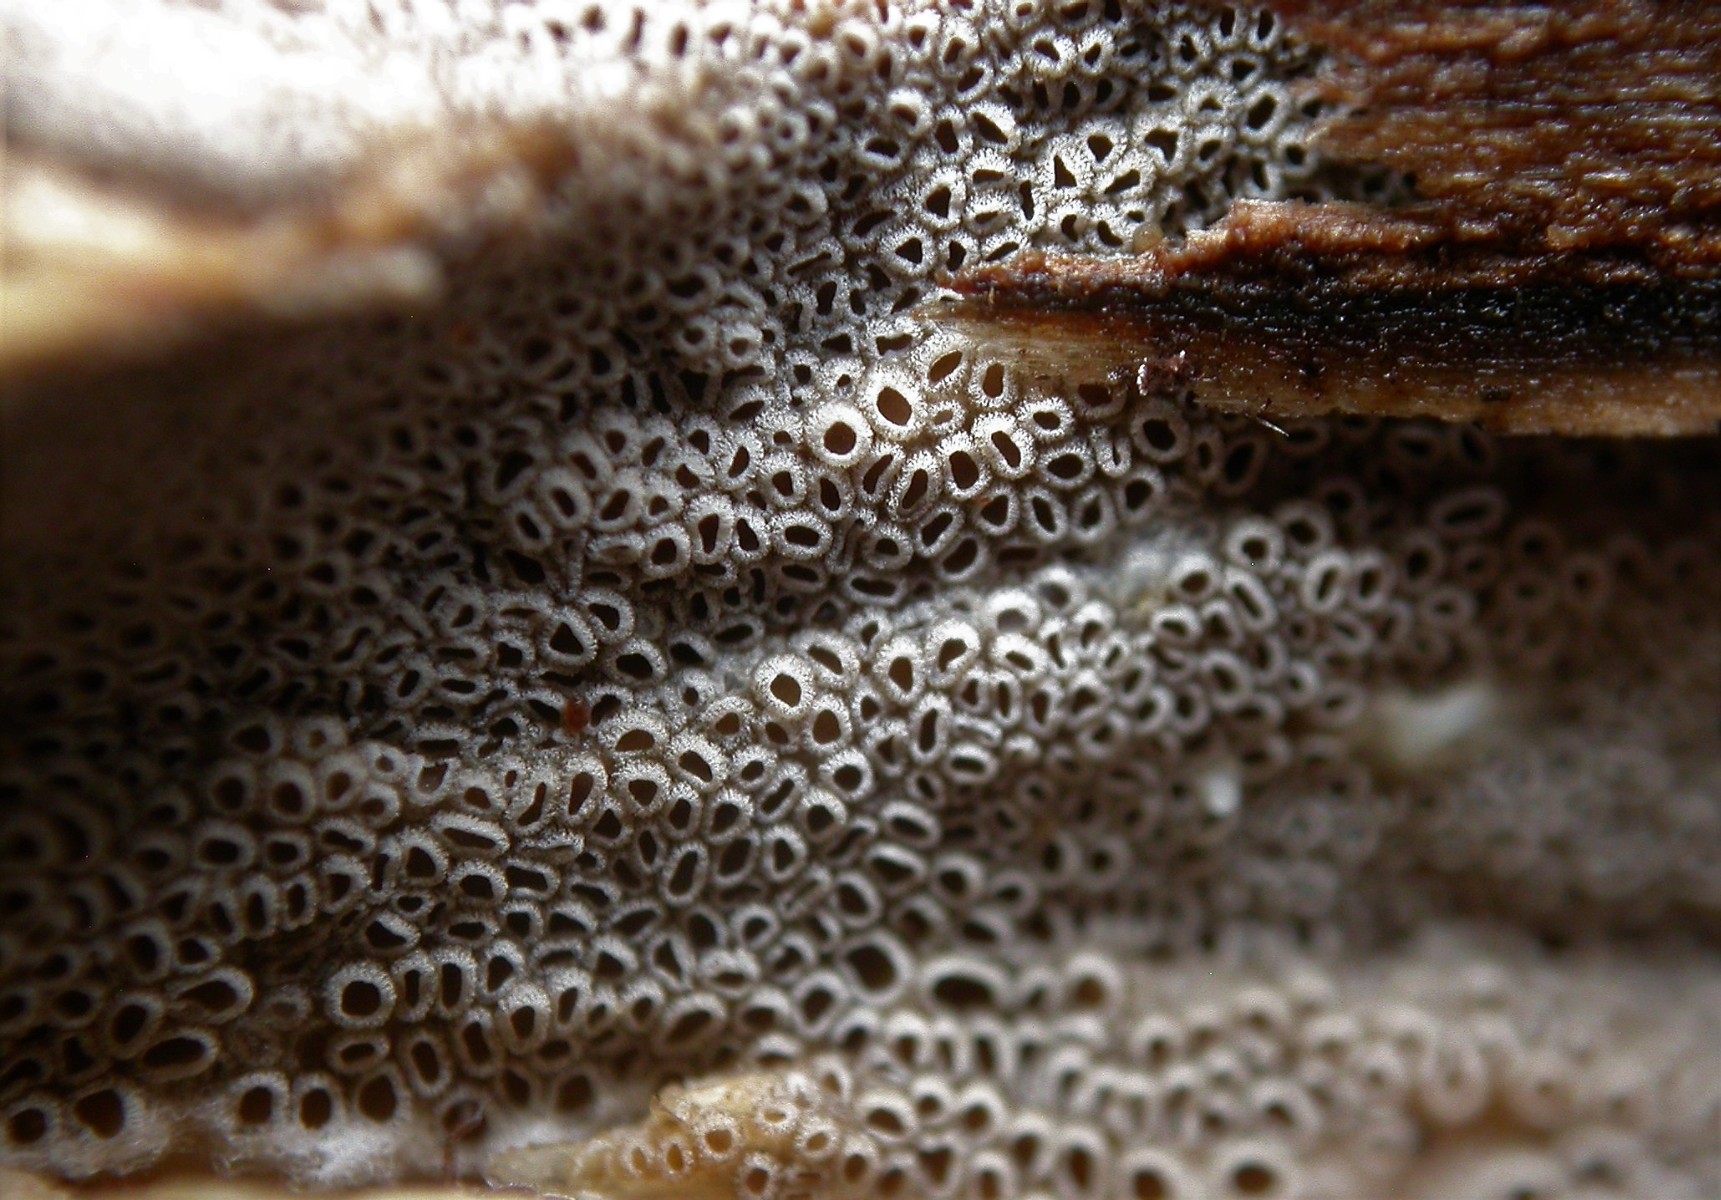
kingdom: Fungi
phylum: Basidiomycota
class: Agaricomycetes
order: Agaricales
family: Pleurotaceae
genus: Resupinatus
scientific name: Resupinatus poriaeformis
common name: tæpperør
